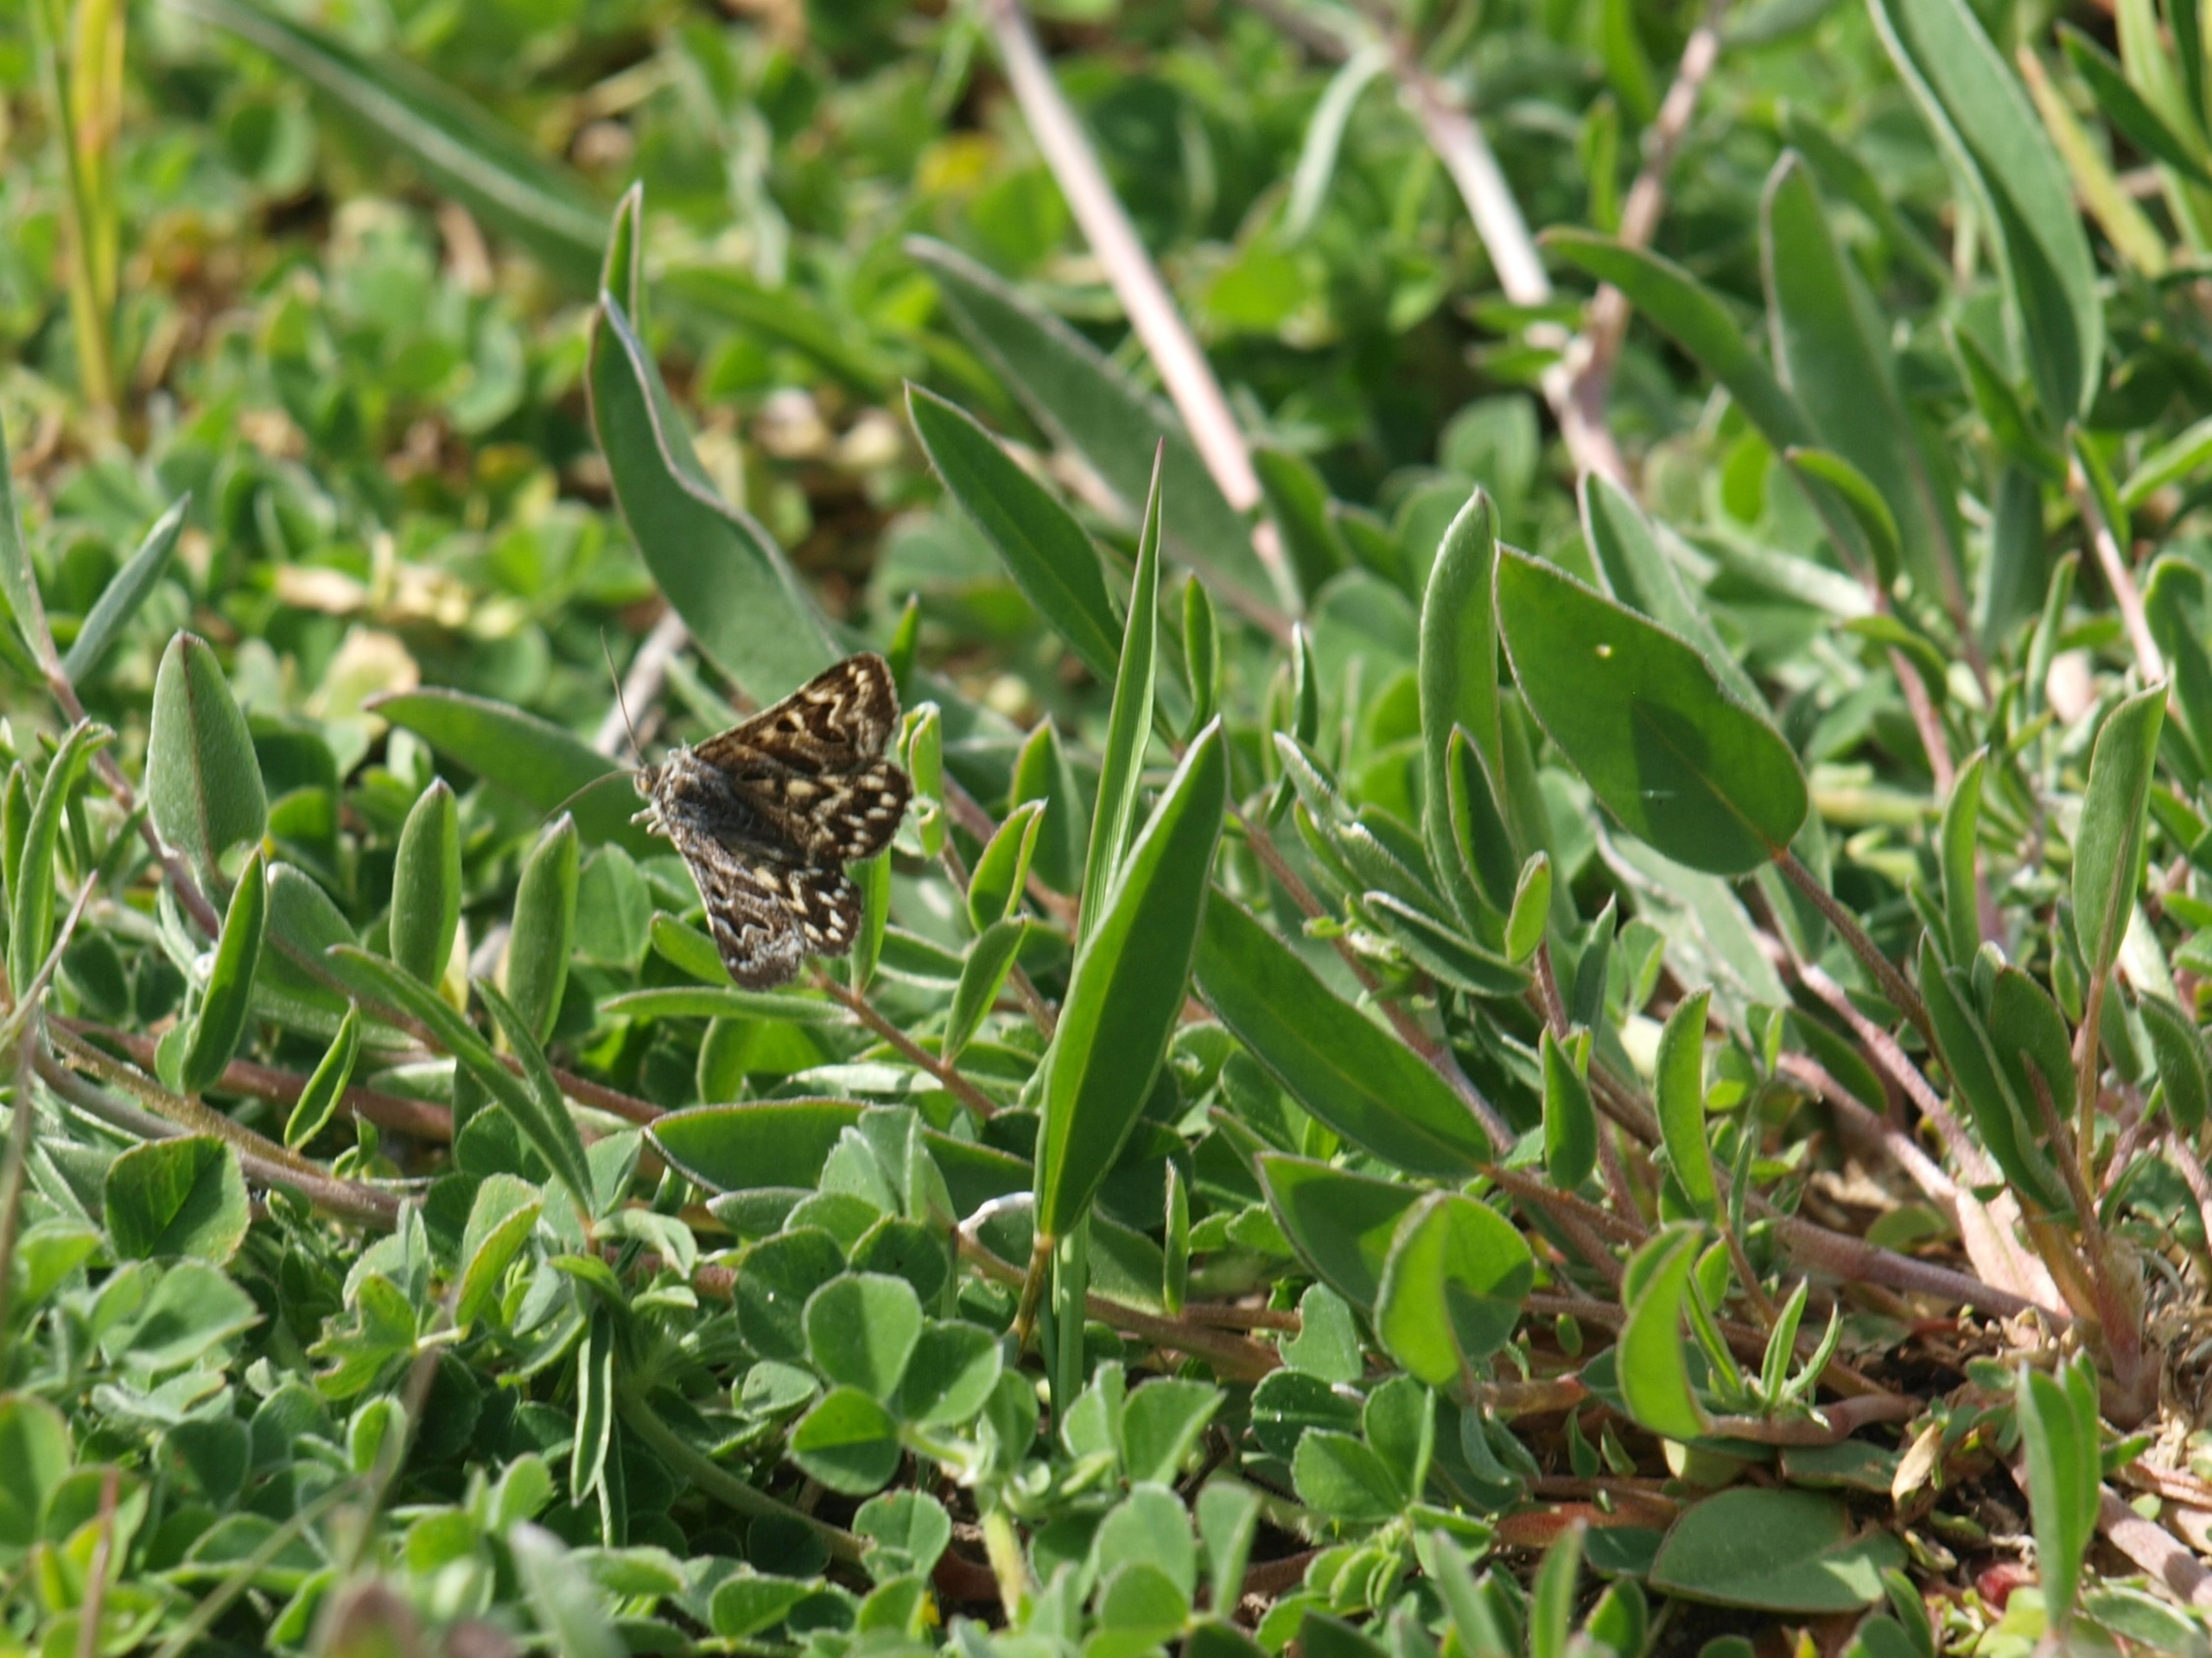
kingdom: Animalia
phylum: Arthropoda
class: Insecta
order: Lepidoptera
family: Erebidae
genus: Callistege
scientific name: Callistege mi
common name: Marmoreret kløverugle
